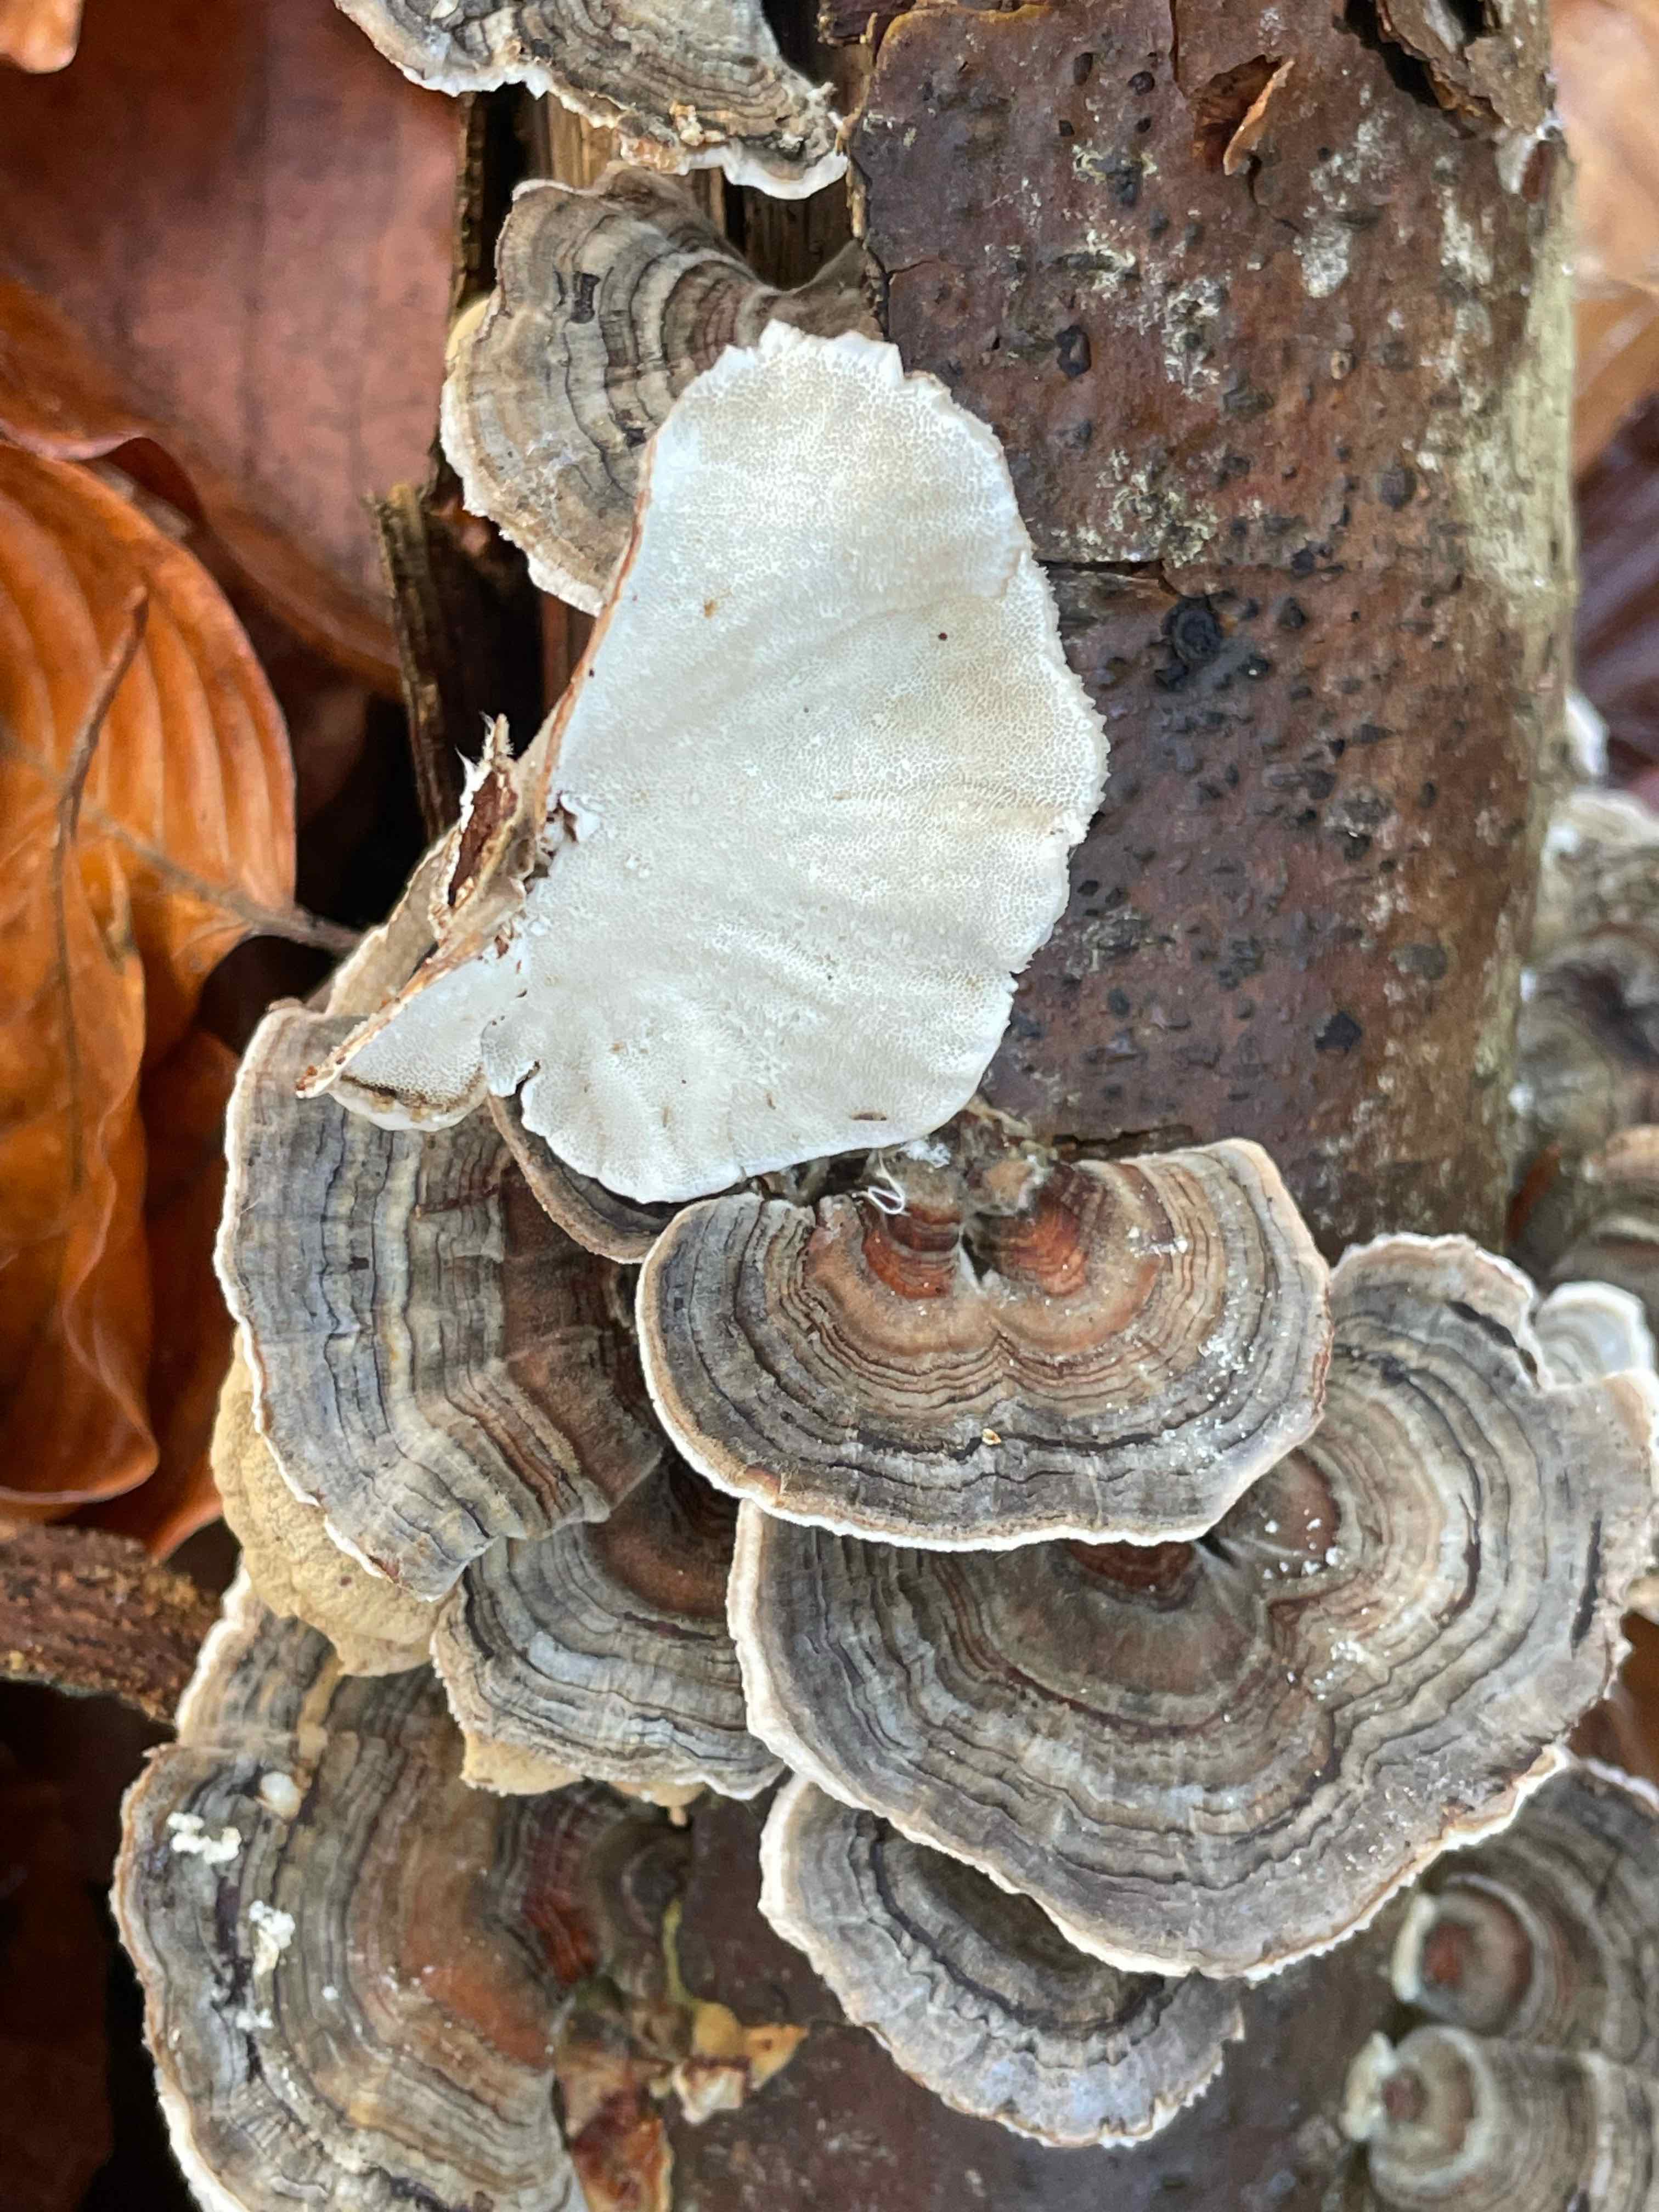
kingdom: Fungi
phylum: Basidiomycota
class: Agaricomycetes
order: Polyporales
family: Polyporaceae
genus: Trametes
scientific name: Trametes versicolor
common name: broget læderporesvamp
